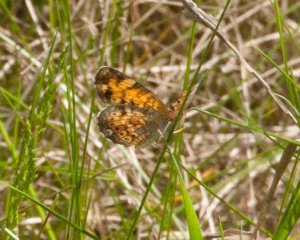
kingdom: Animalia
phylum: Arthropoda
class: Insecta
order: Lepidoptera
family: Nymphalidae
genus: Phyciodes
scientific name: Phyciodes
